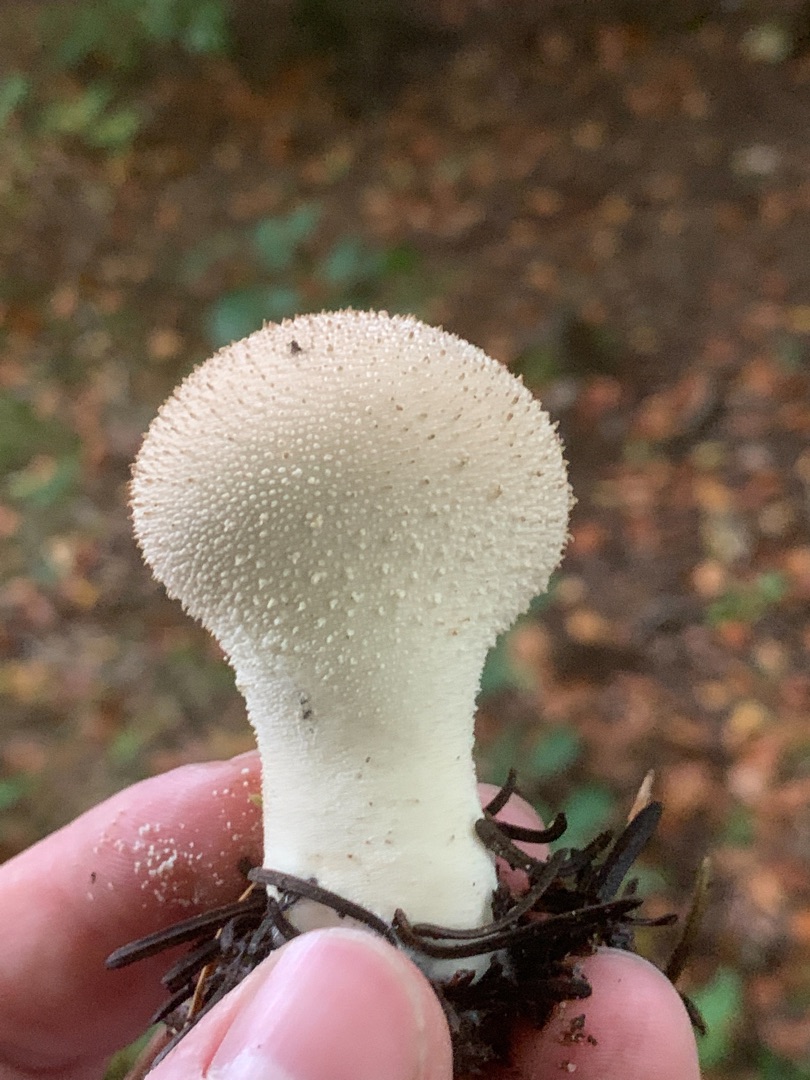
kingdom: Fungi
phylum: Basidiomycota
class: Agaricomycetes
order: Agaricales
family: Lycoperdaceae
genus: Lycoperdon
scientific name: Lycoperdon perlatum
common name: Krystal-støvbold
